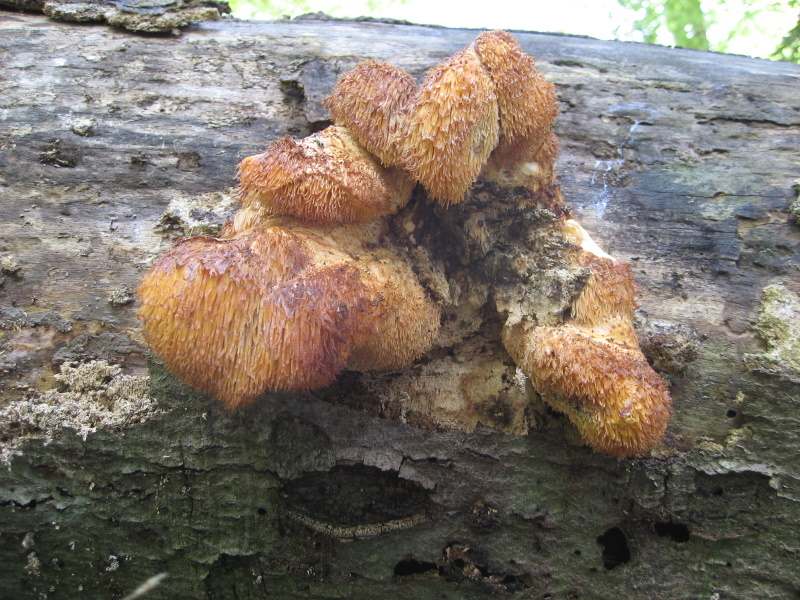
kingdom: Fungi
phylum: Basidiomycota
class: Agaricomycetes
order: Russulales
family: Hericiaceae
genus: Hericium
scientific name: Hericium cirrhatum
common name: børstepigsvamp
